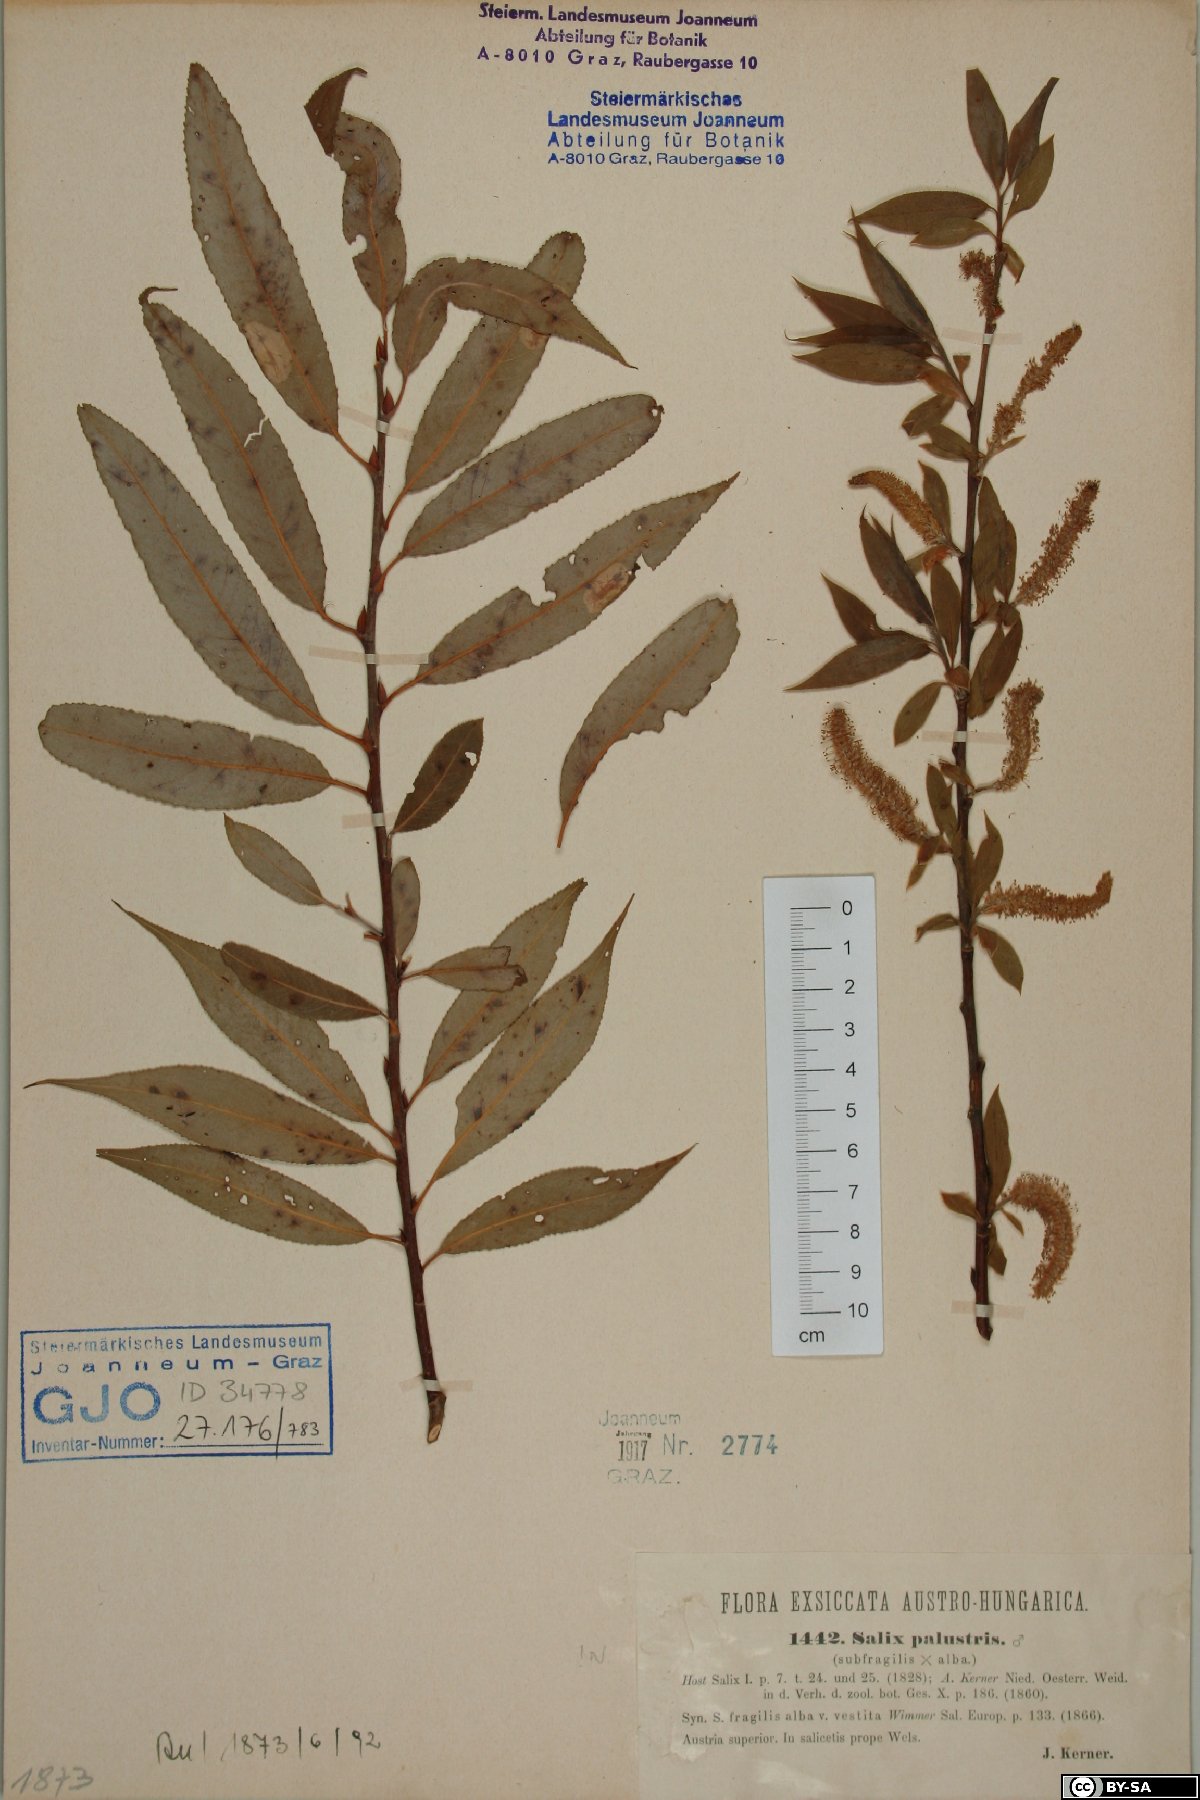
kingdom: Plantae
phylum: Tracheophyta
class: Magnoliopsida
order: Malpighiales
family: Salicaceae
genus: Salix
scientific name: Salix rubens
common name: Hybrid crack willow
